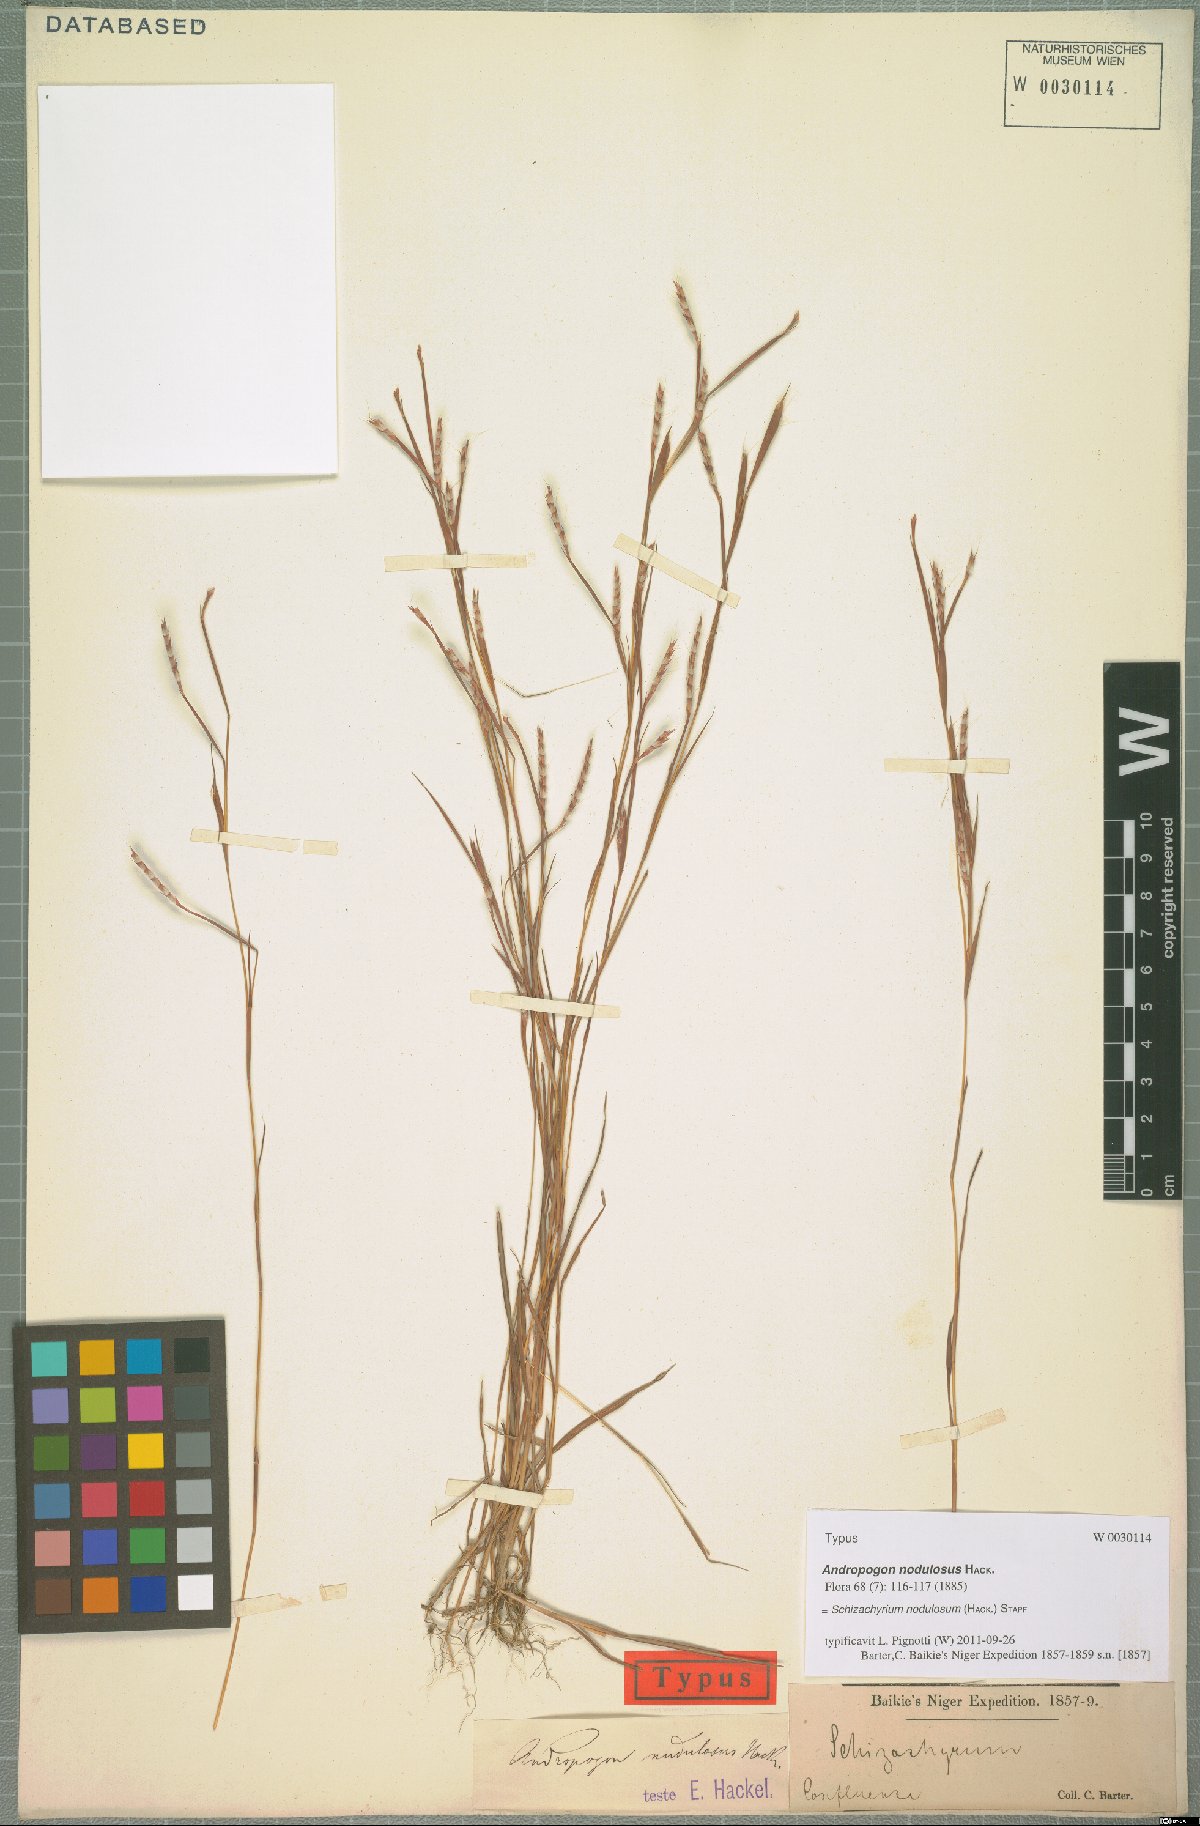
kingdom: Plantae
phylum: Tracheophyta
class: Liliopsida
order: Poales
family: Poaceae
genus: Schizachyrium
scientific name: Schizachyrium nodulosum
